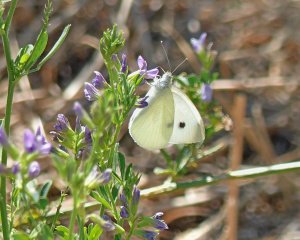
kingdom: Animalia
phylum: Arthropoda
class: Insecta
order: Lepidoptera
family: Pieridae
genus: Pieris
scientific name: Pieris rapae
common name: Cabbage White
